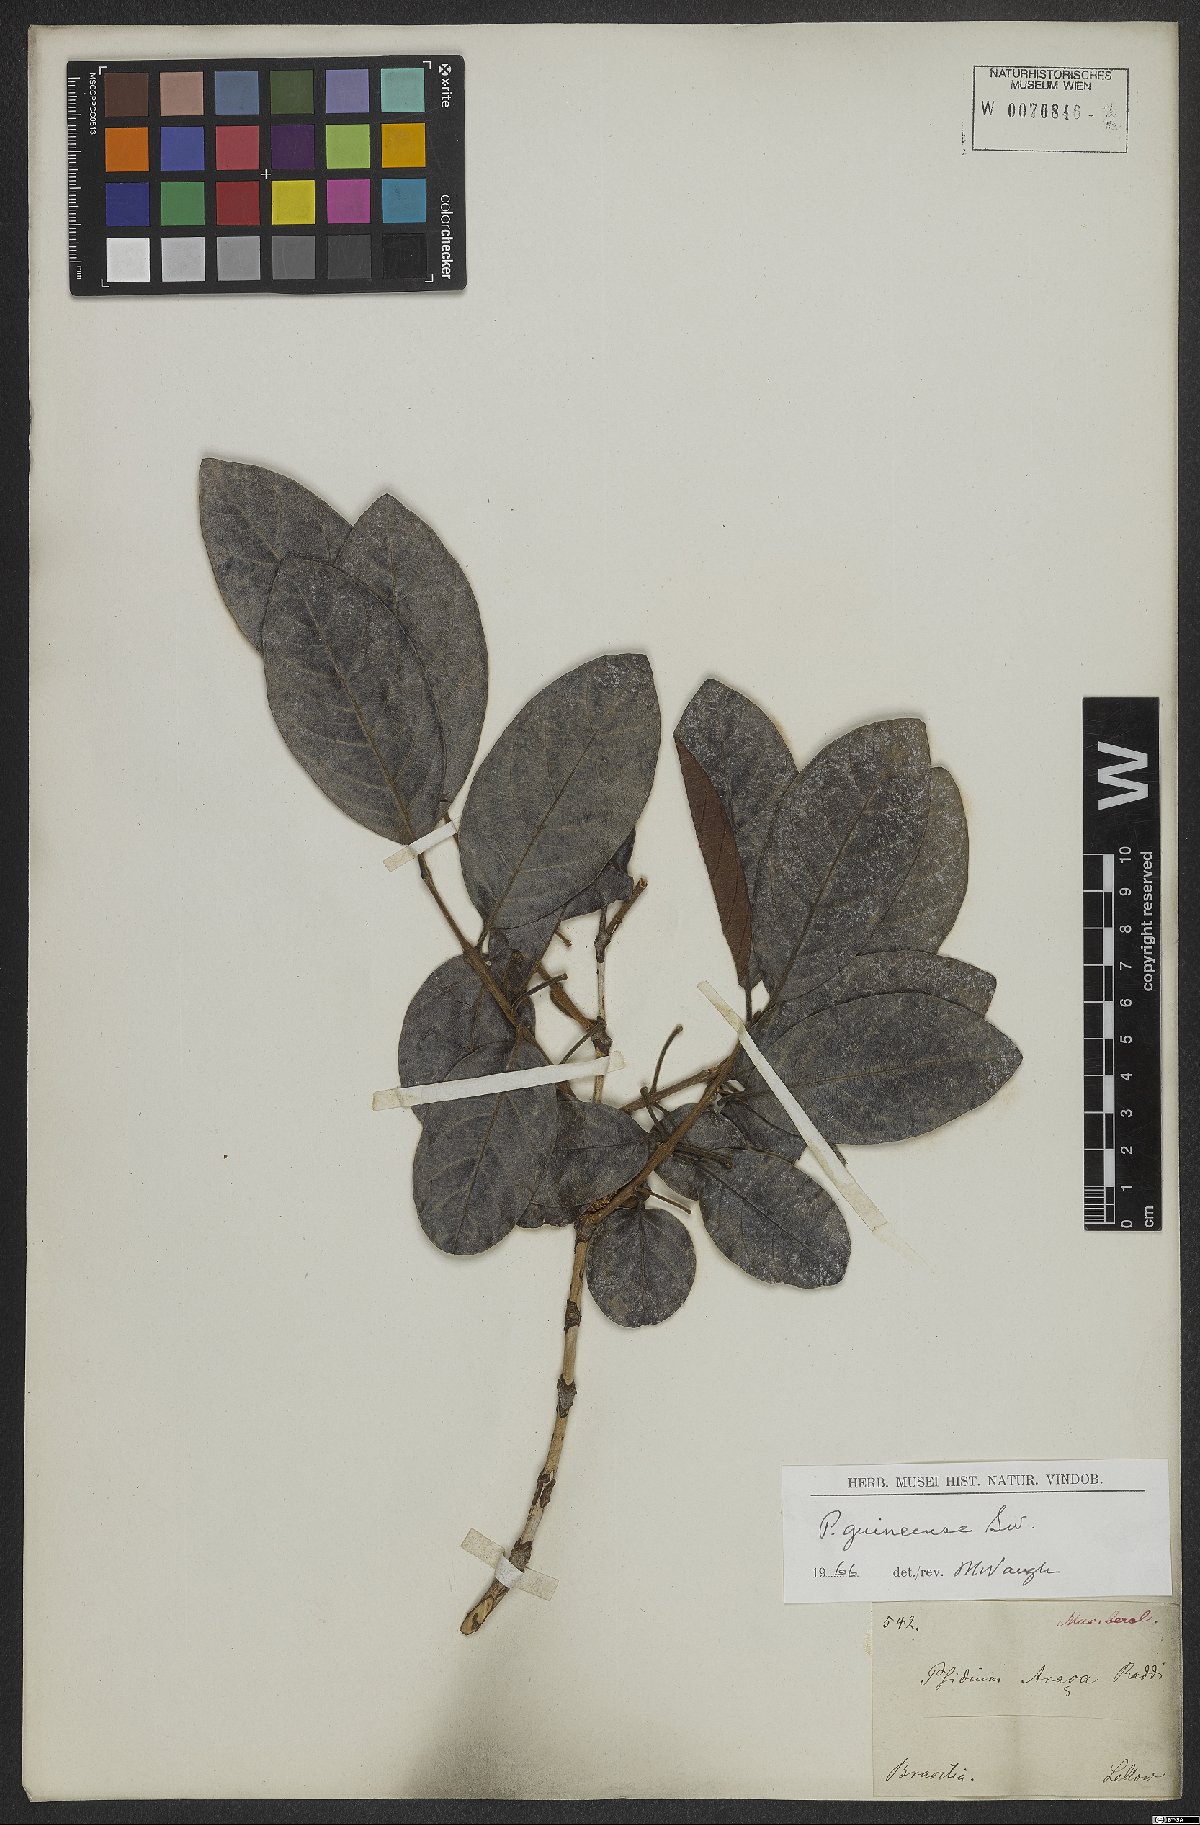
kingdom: Plantae
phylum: Tracheophyta
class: Magnoliopsida
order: Myrtales
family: Myrtaceae
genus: Psidium
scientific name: Psidium guineense
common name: Brazilian guava
